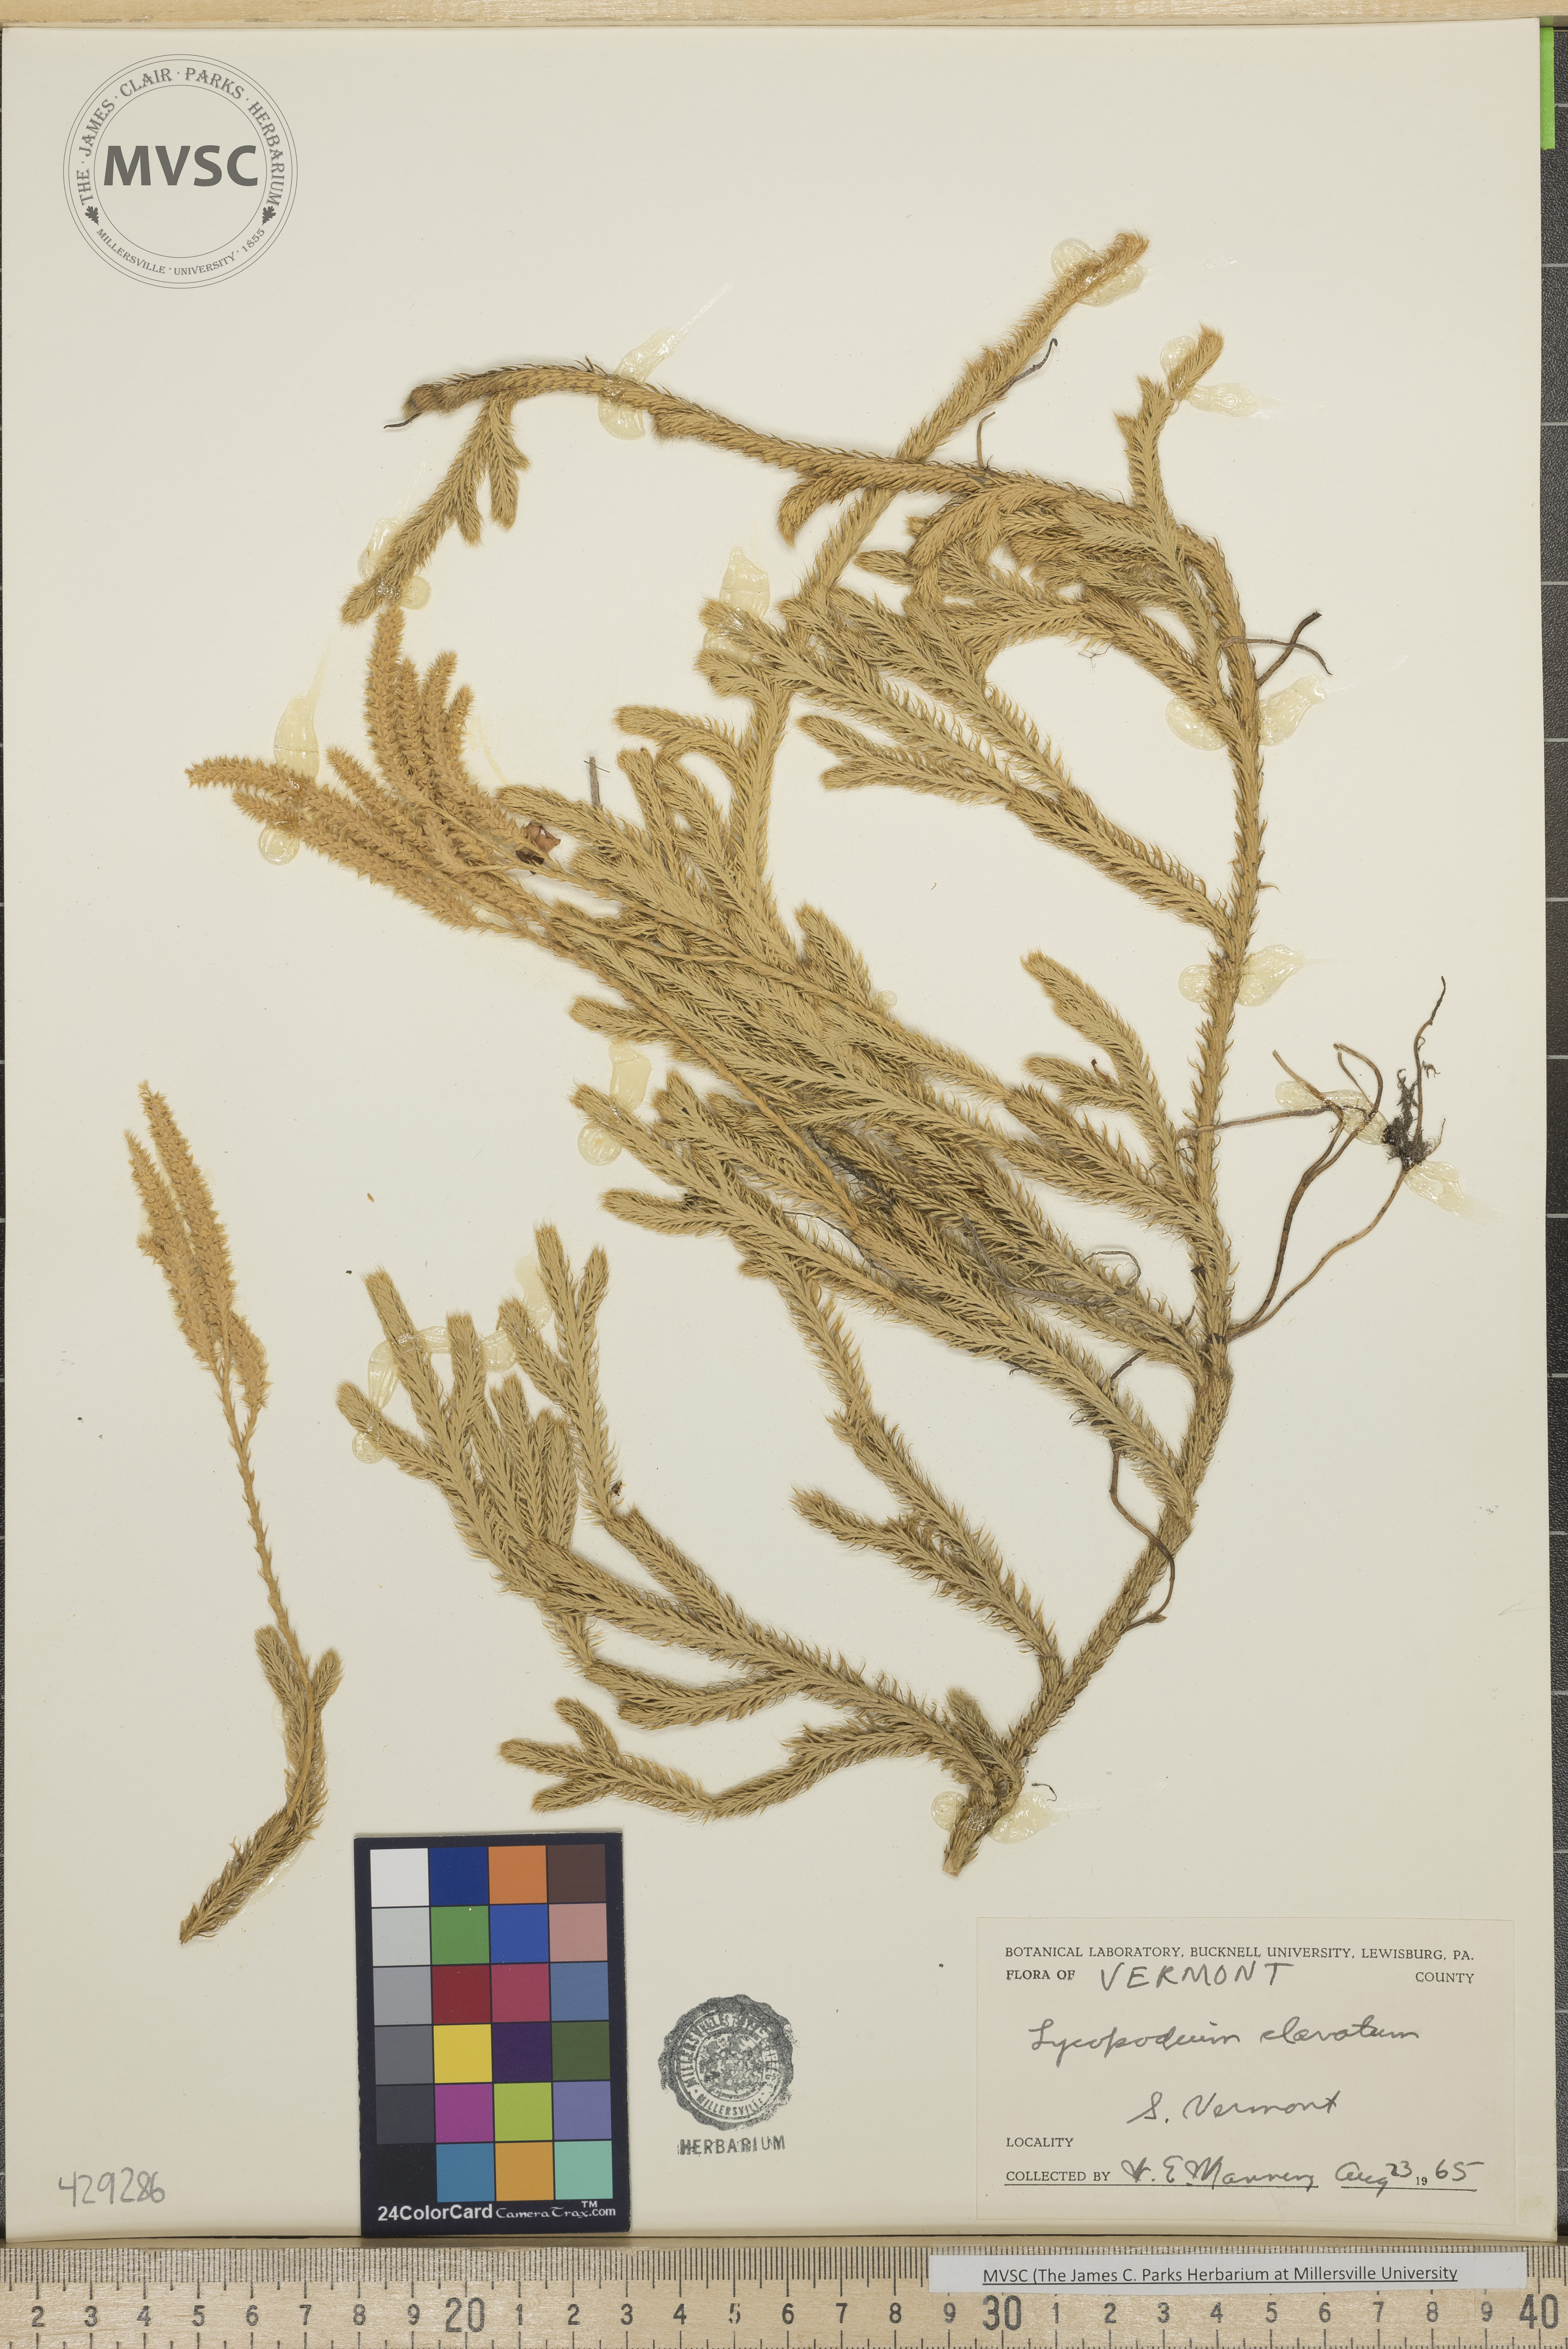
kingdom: Plantae
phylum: Tracheophyta
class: Lycopodiopsida
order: Lycopodiales
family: Lycopodiaceae
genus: Lycopodium
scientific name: Lycopodium clavatum
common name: Stag's-horn clubmoss
